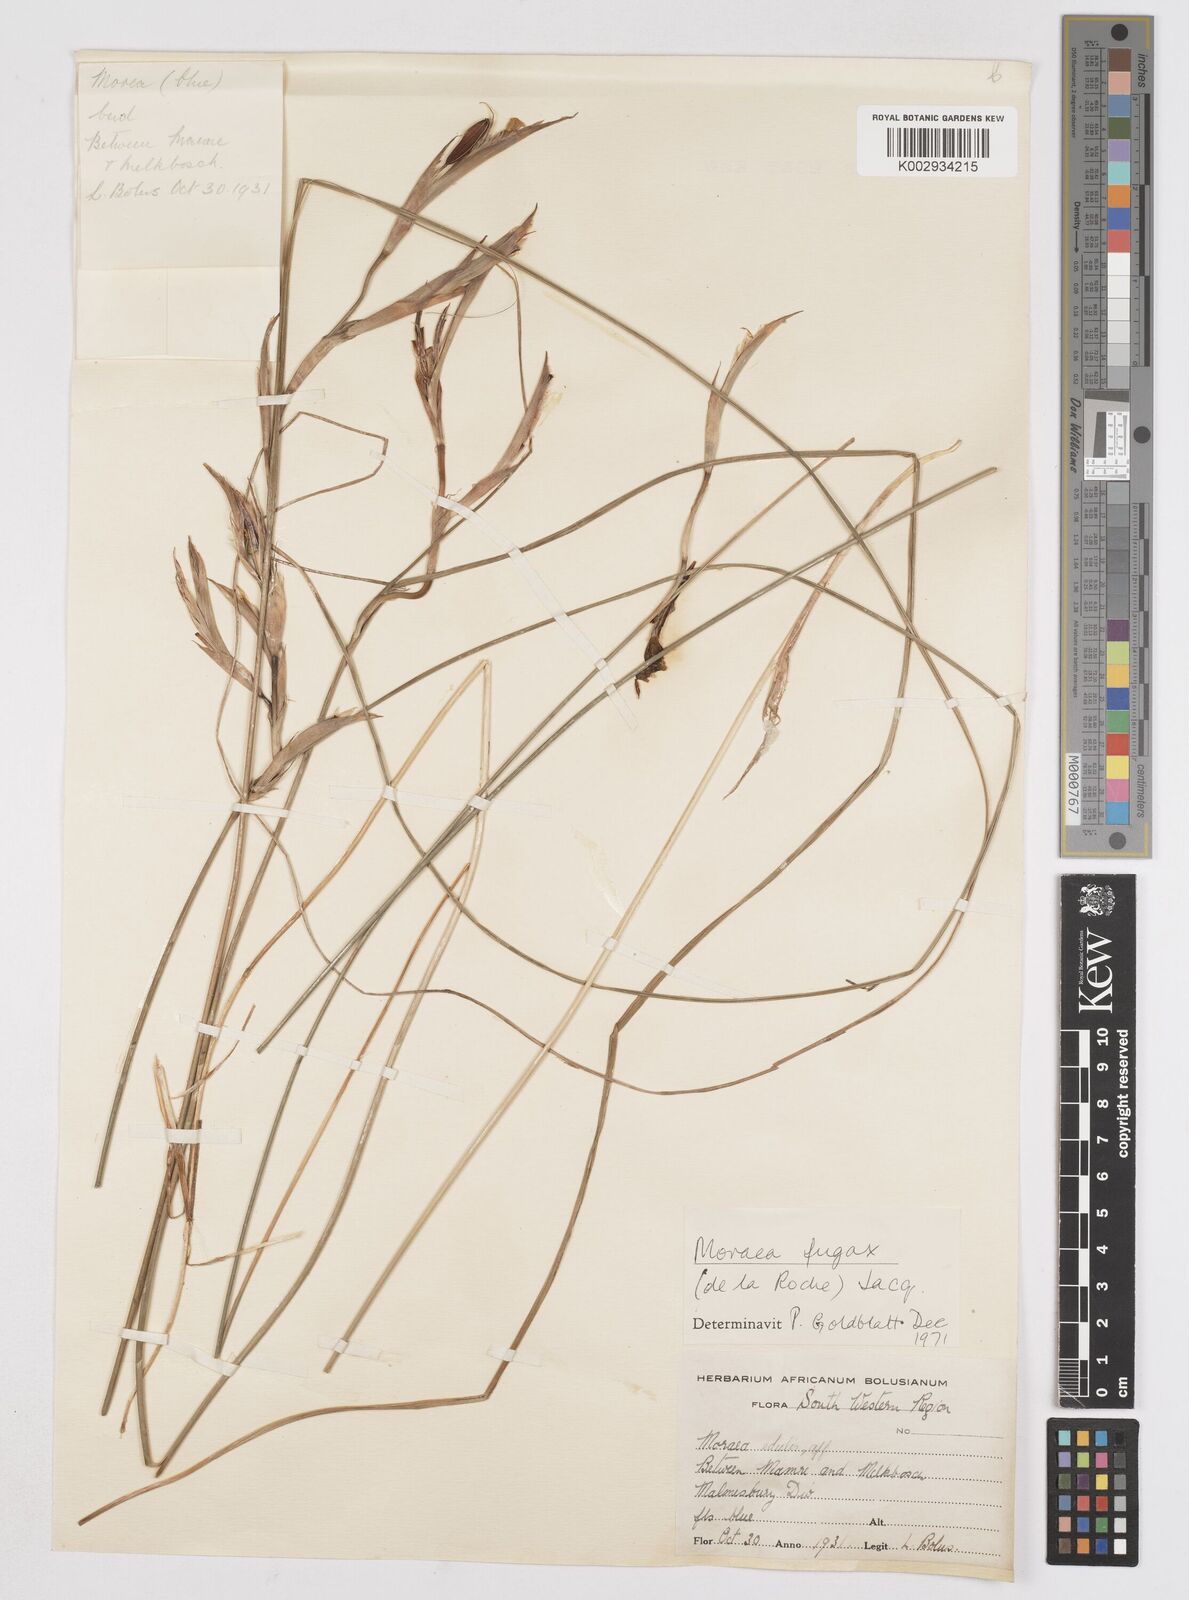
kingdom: Plantae
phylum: Tracheophyta
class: Liliopsida
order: Asparagales
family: Iridaceae
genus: Moraea
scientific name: Moraea fugax
